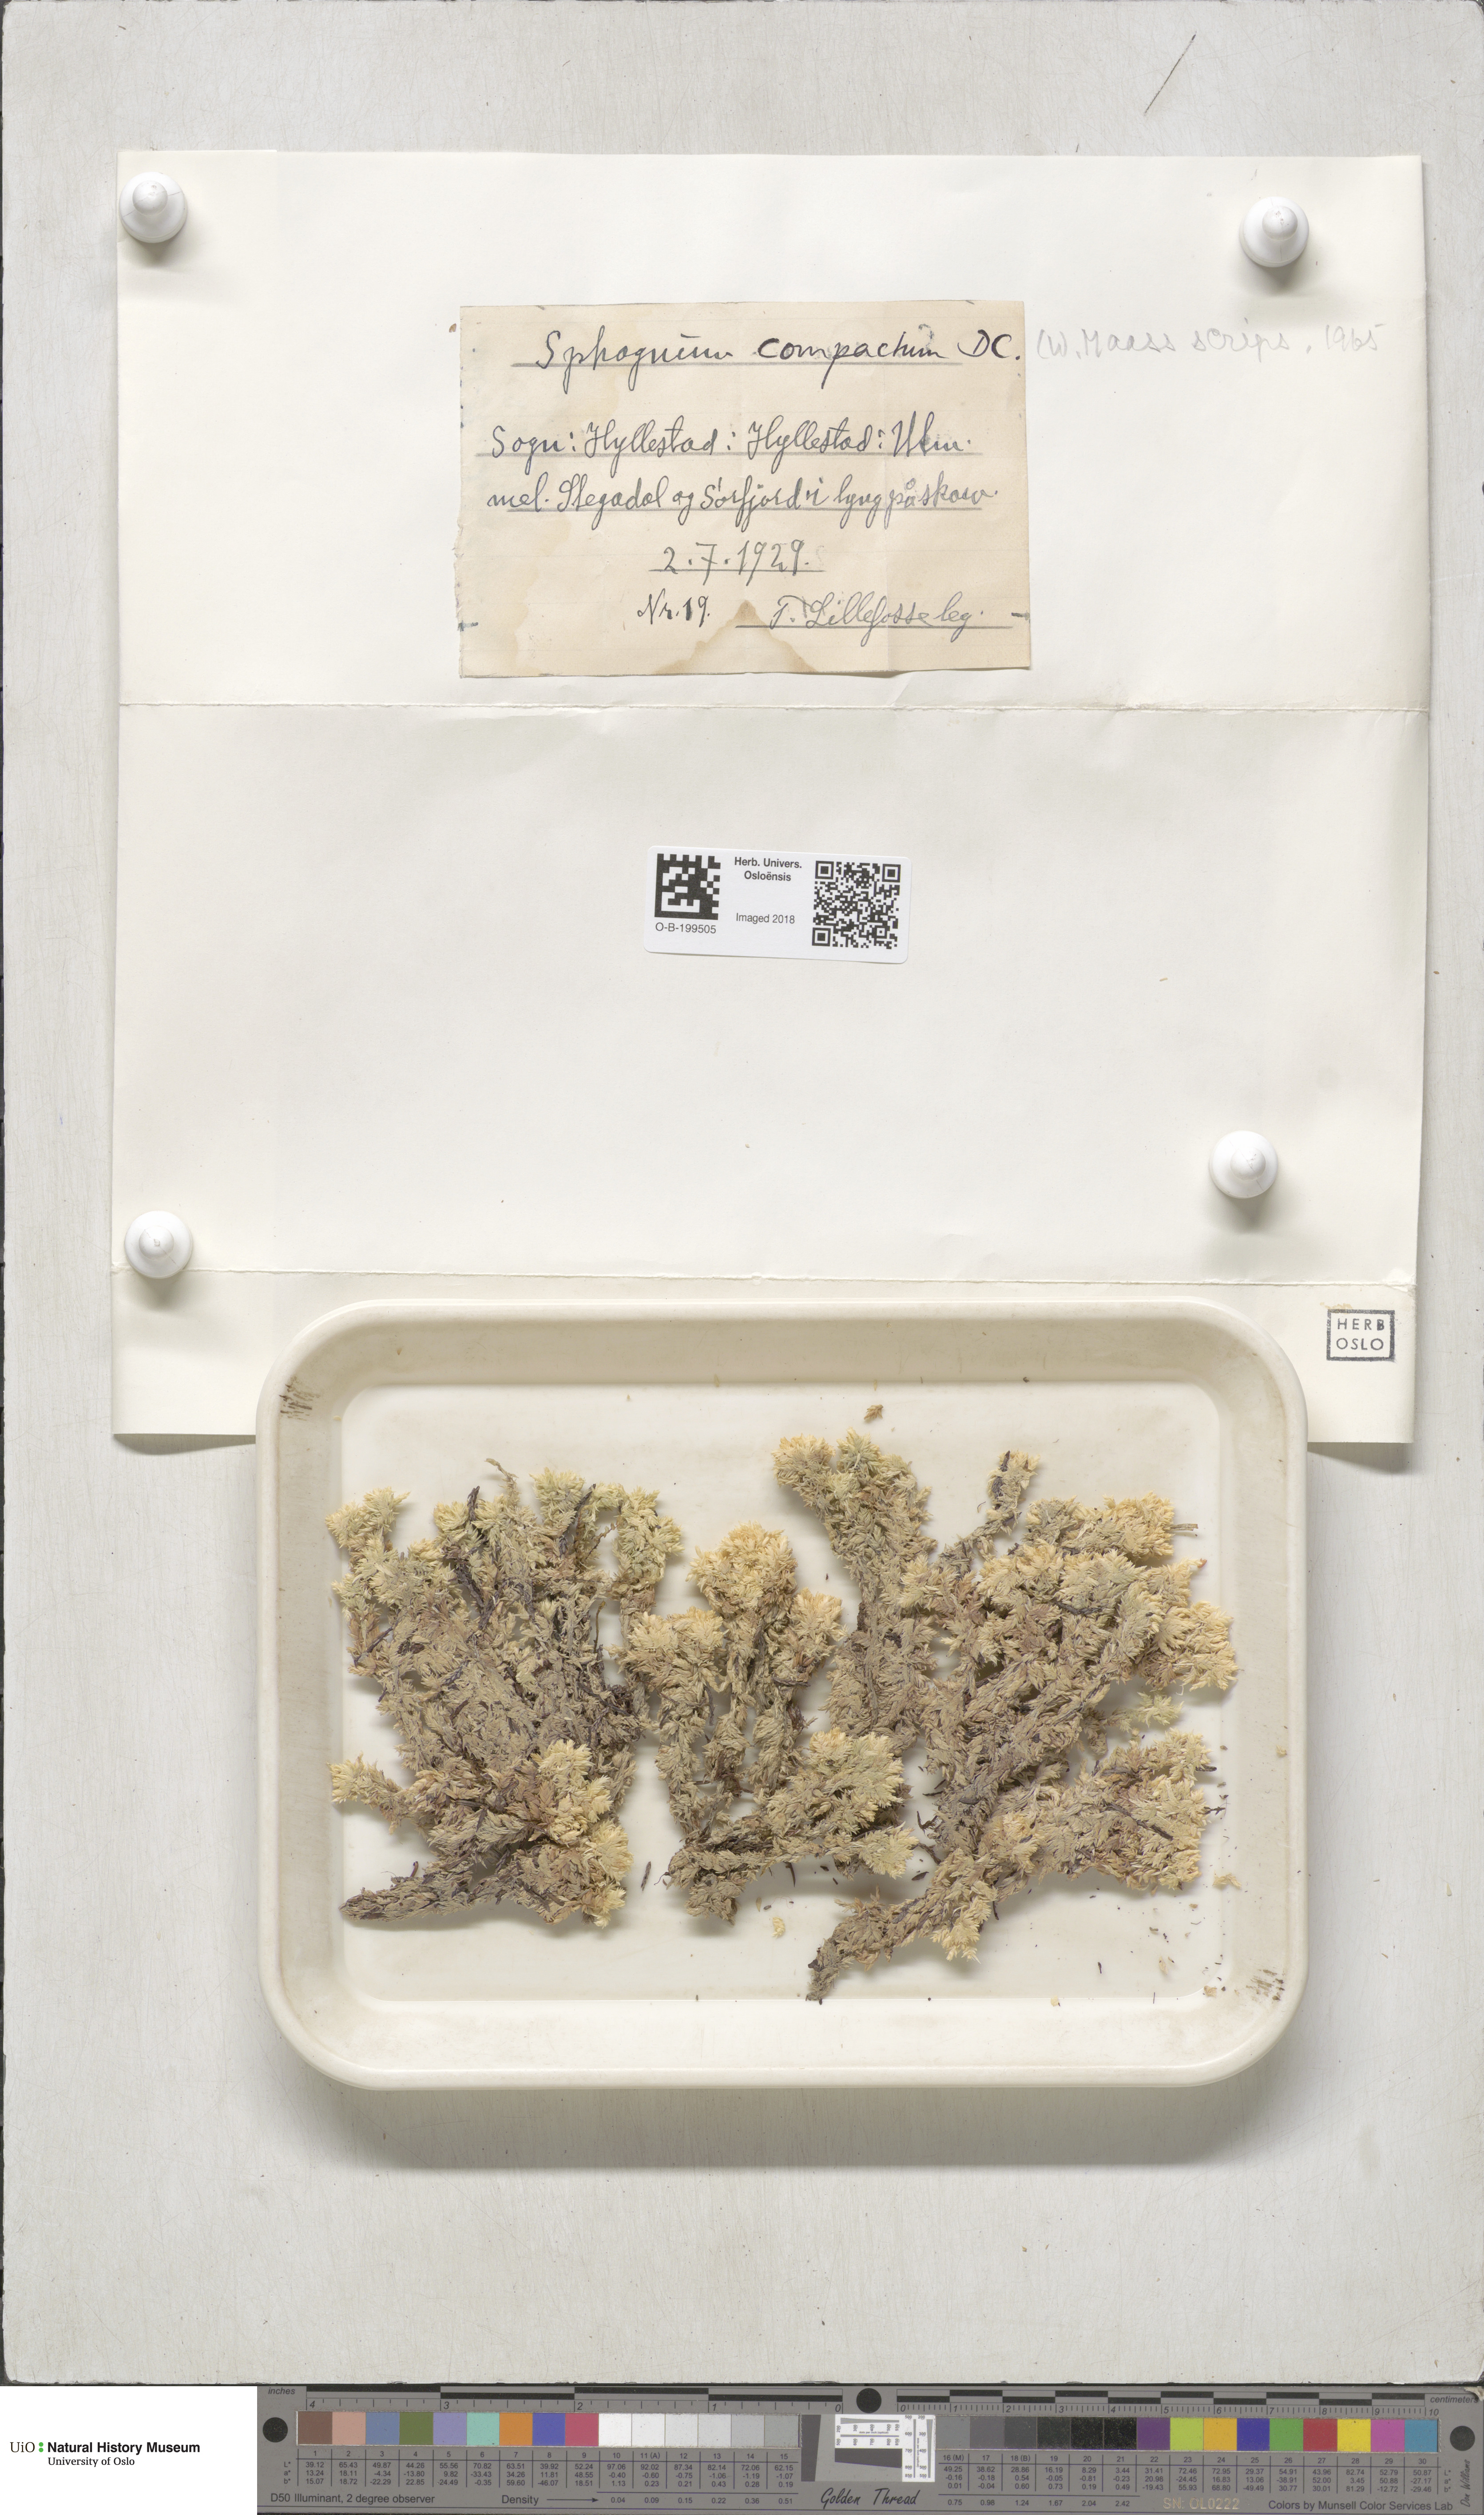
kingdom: Plantae
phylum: Bryophyta
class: Sphagnopsida
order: Sphagnales
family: Sphagnaceae
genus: Sphagnum
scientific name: Sphagnum compactum
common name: Compact peat moss
